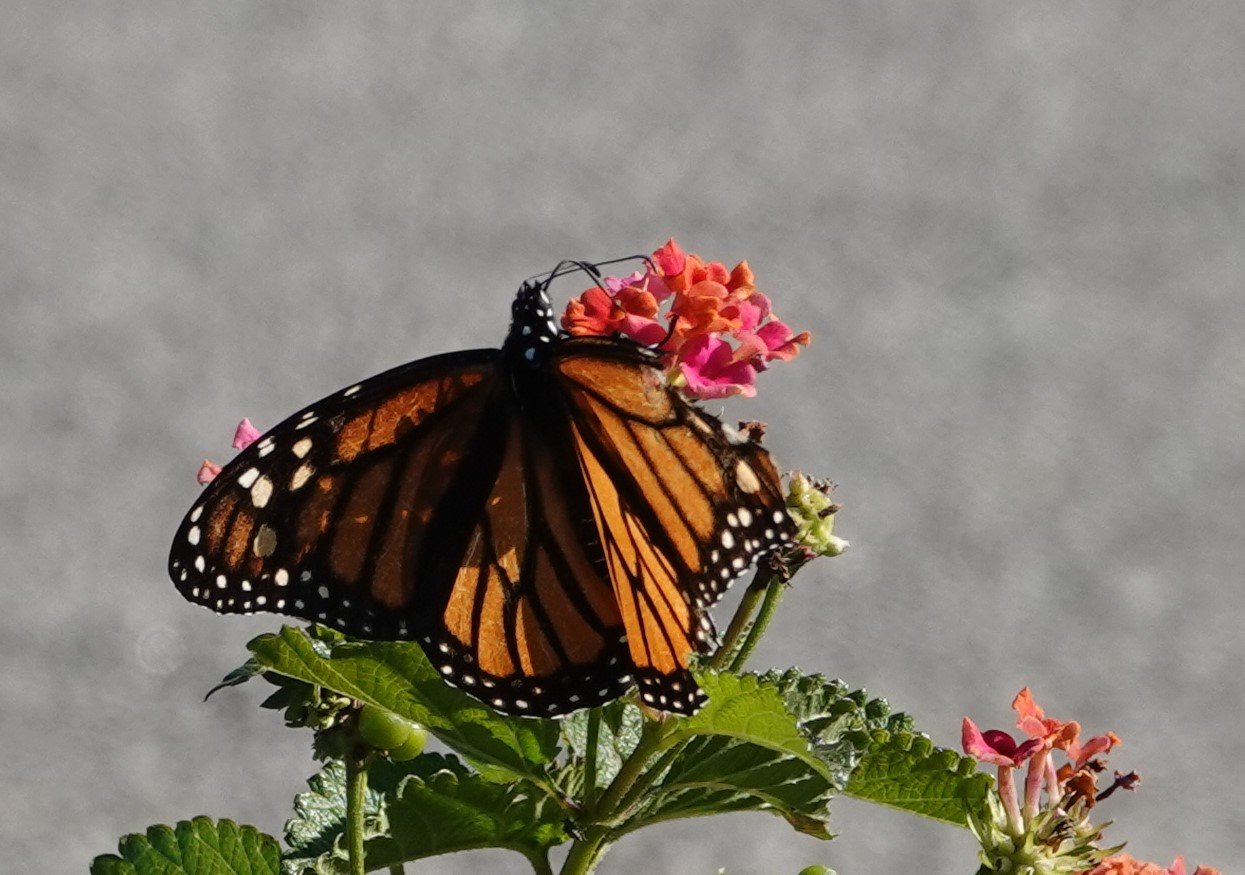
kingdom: Animalia
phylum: Arthropoda
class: Insecta
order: Lepidoptera
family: Nymphalidae
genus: Danaus
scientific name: Danaus plexippus
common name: Monarch
